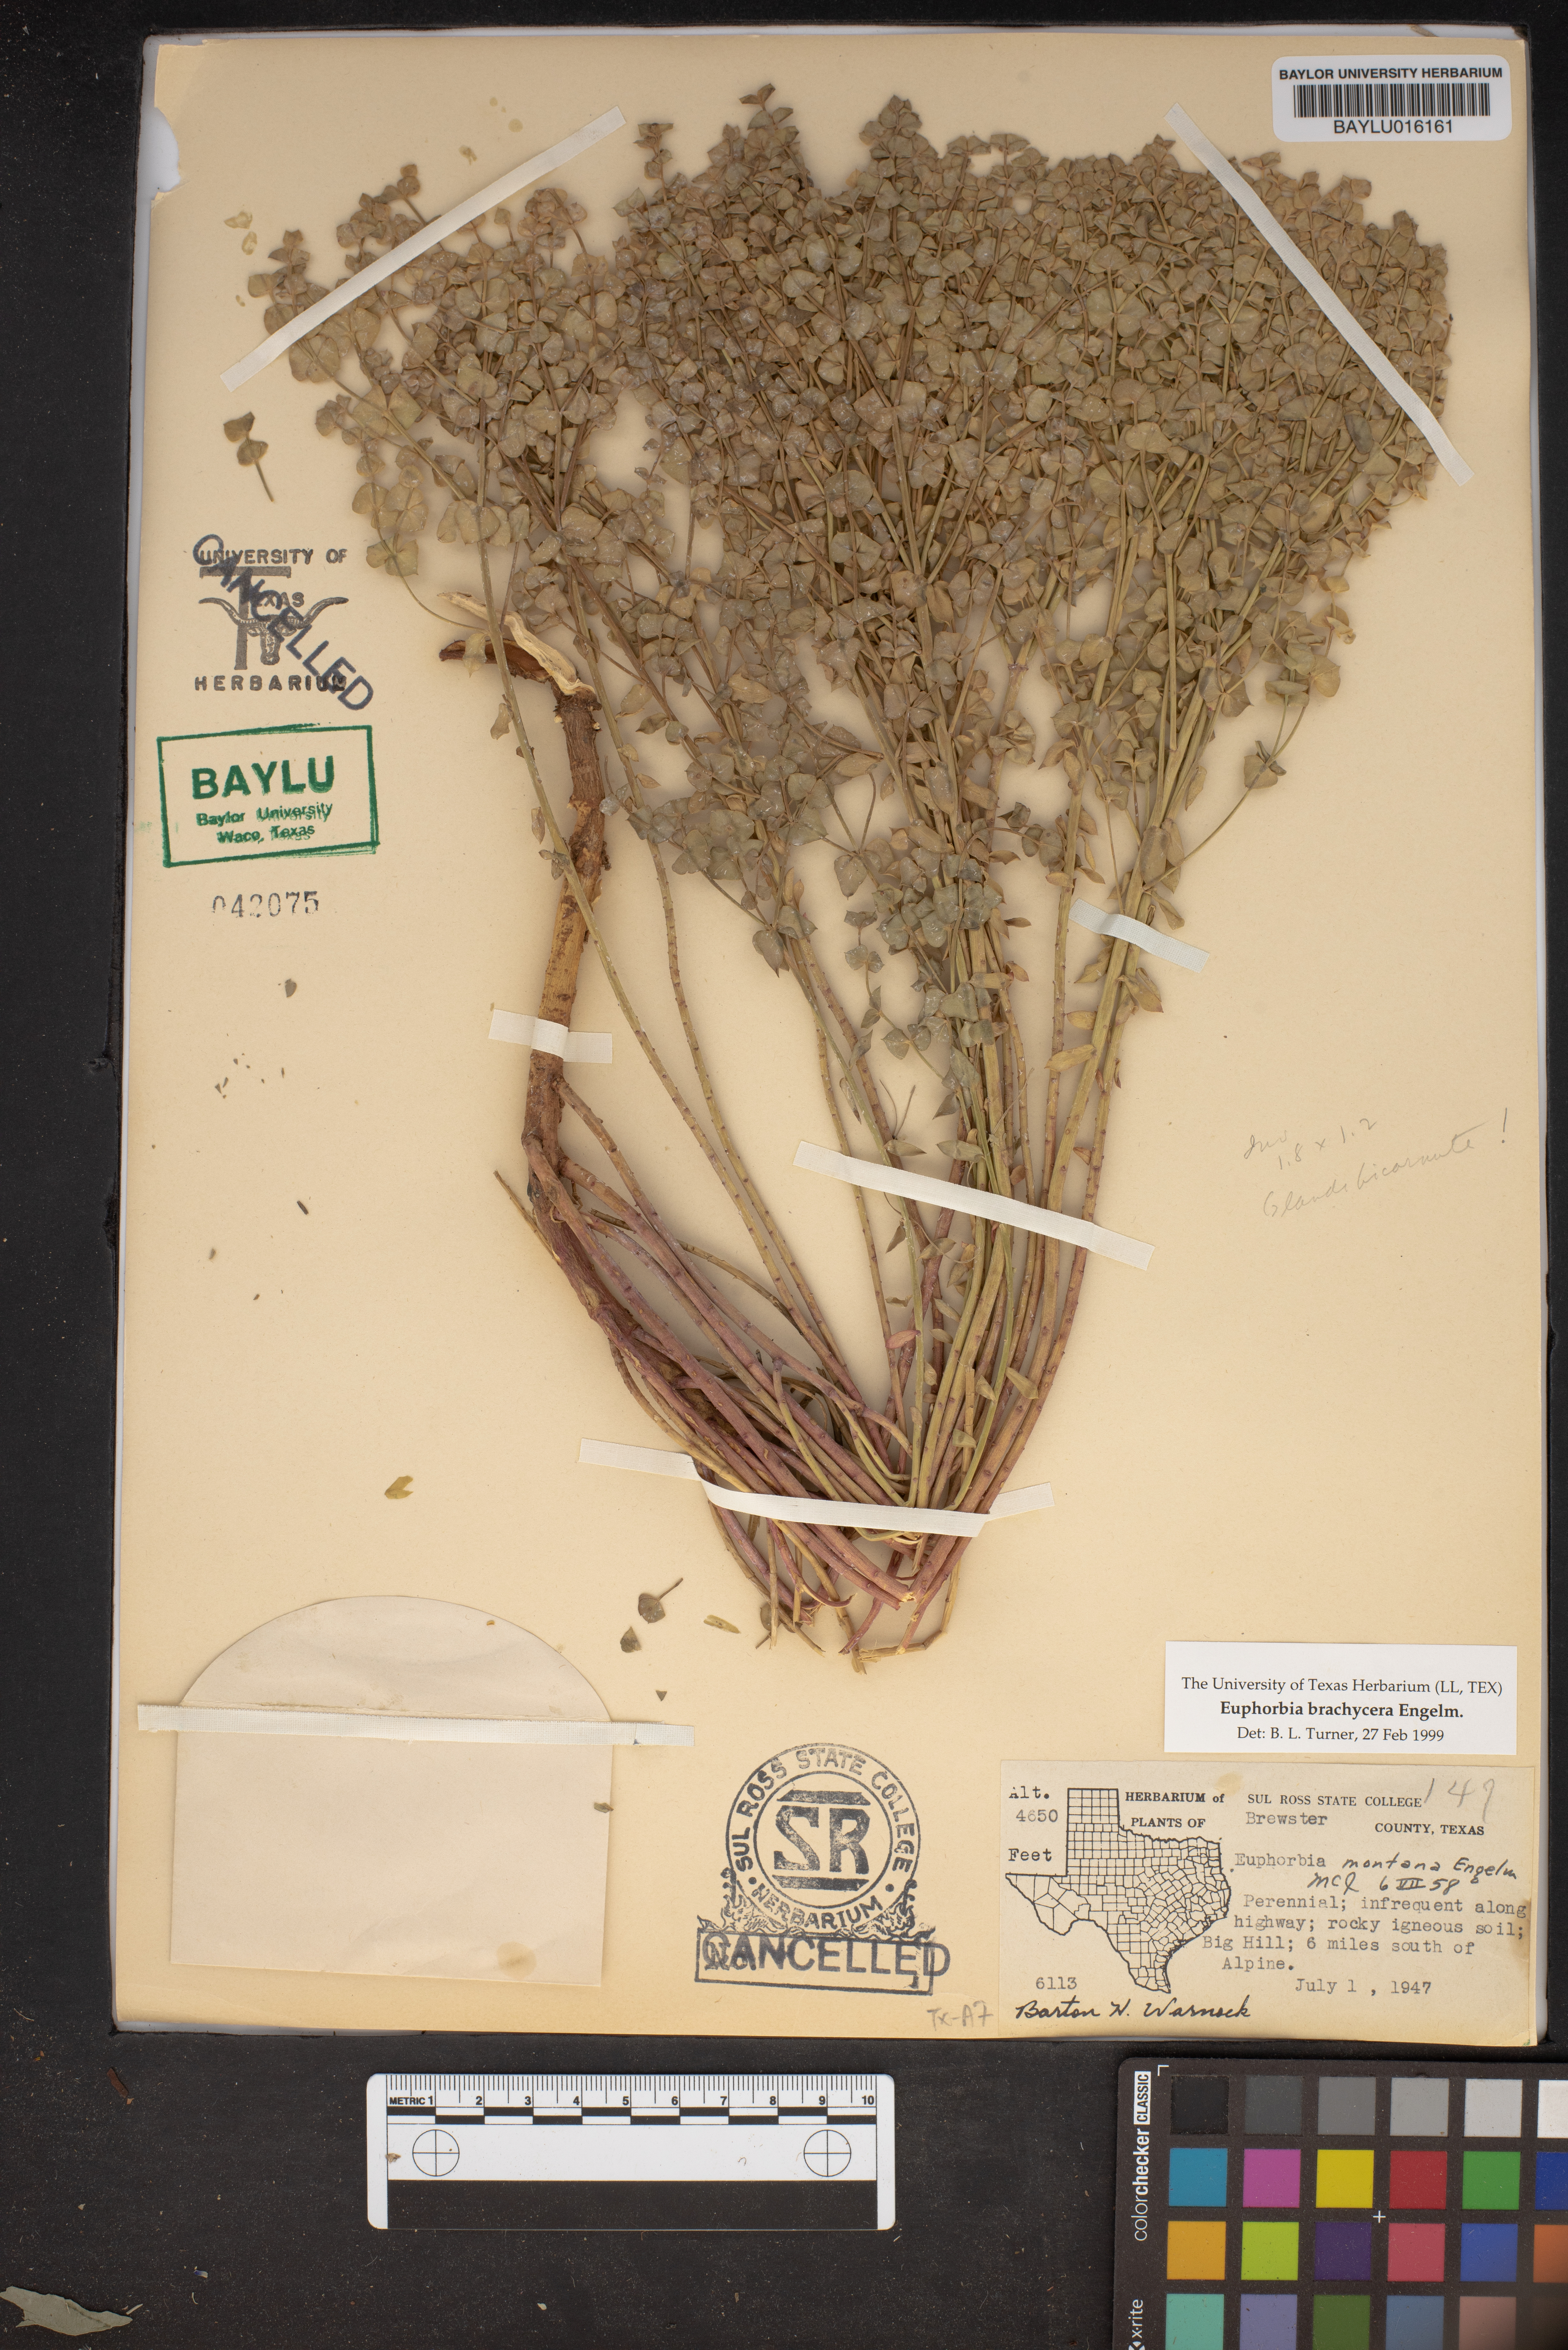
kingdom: Plantae
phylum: Tracheophyta
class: Magnoliopsida
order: Malpighiales
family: Euphorbiaceae
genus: Euphorbia
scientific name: Euphorbia brachycera
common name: Shorthorn spurge
